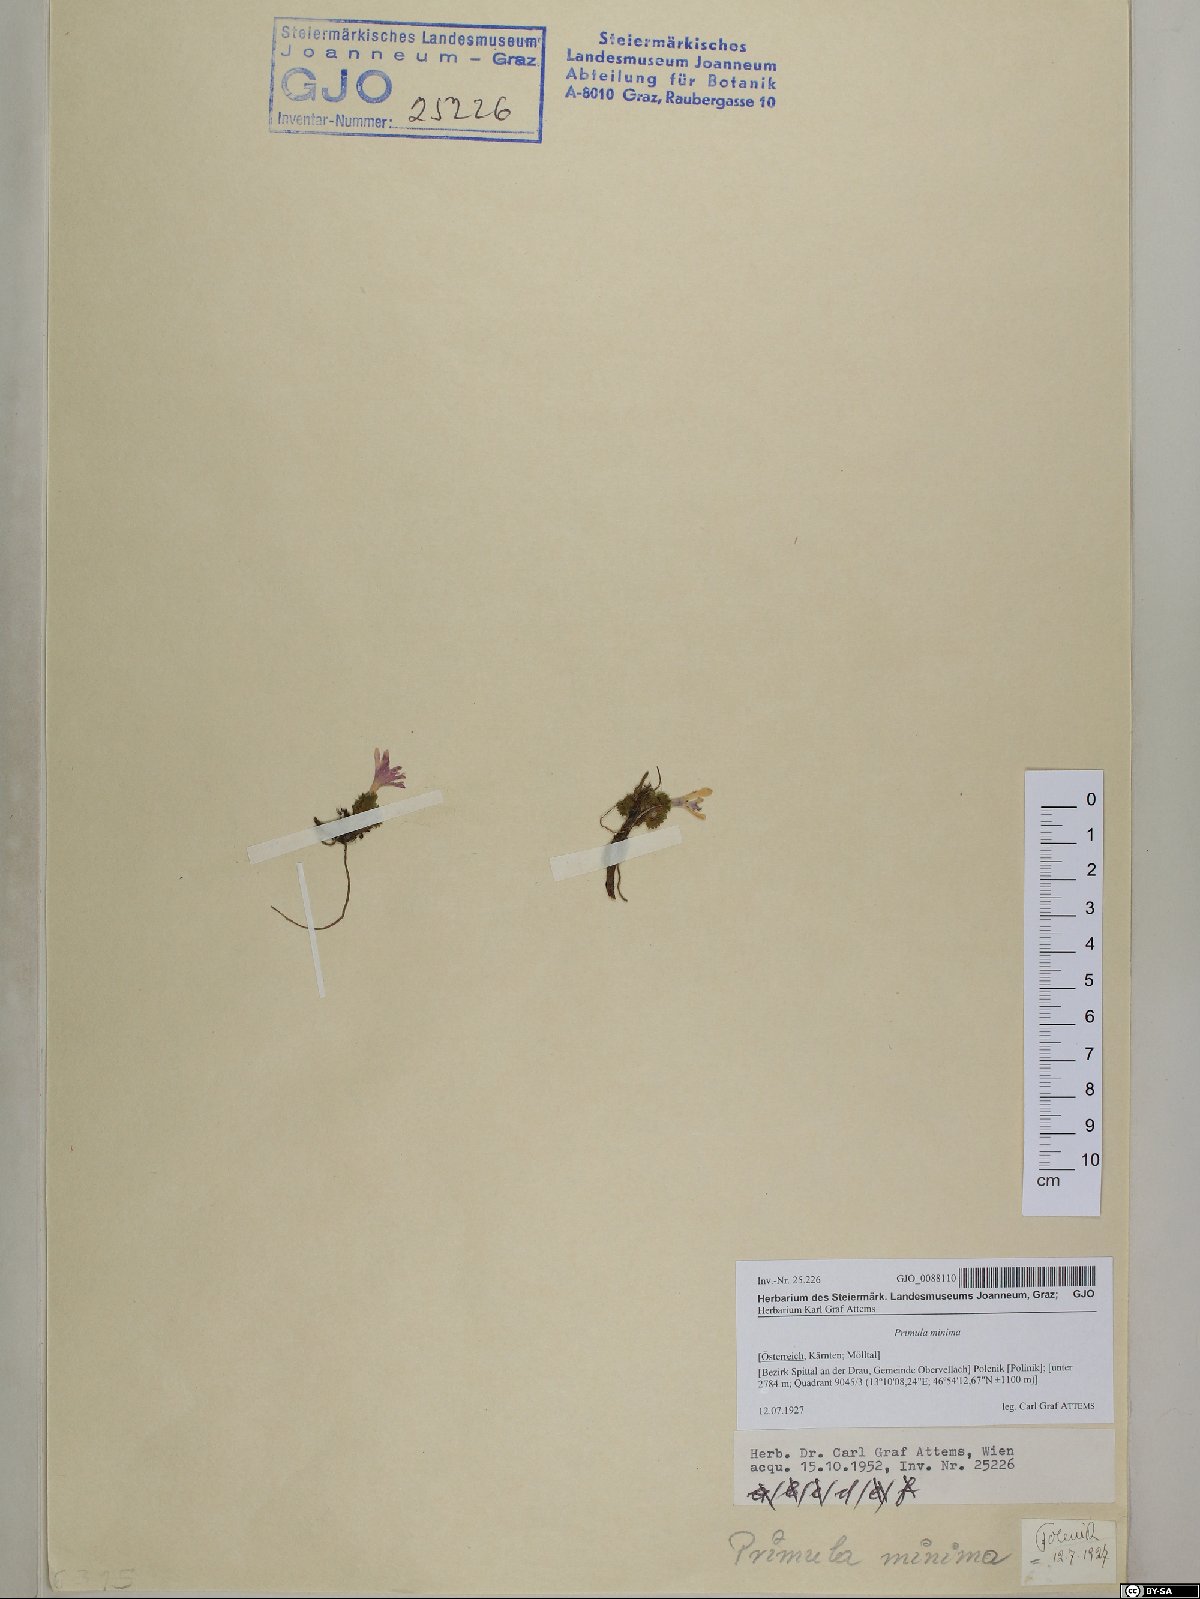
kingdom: Plantae
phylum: Tracheophyta
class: Magnoliopsida
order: Ericales
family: Primulaceae
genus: Primula
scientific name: Primula minima
